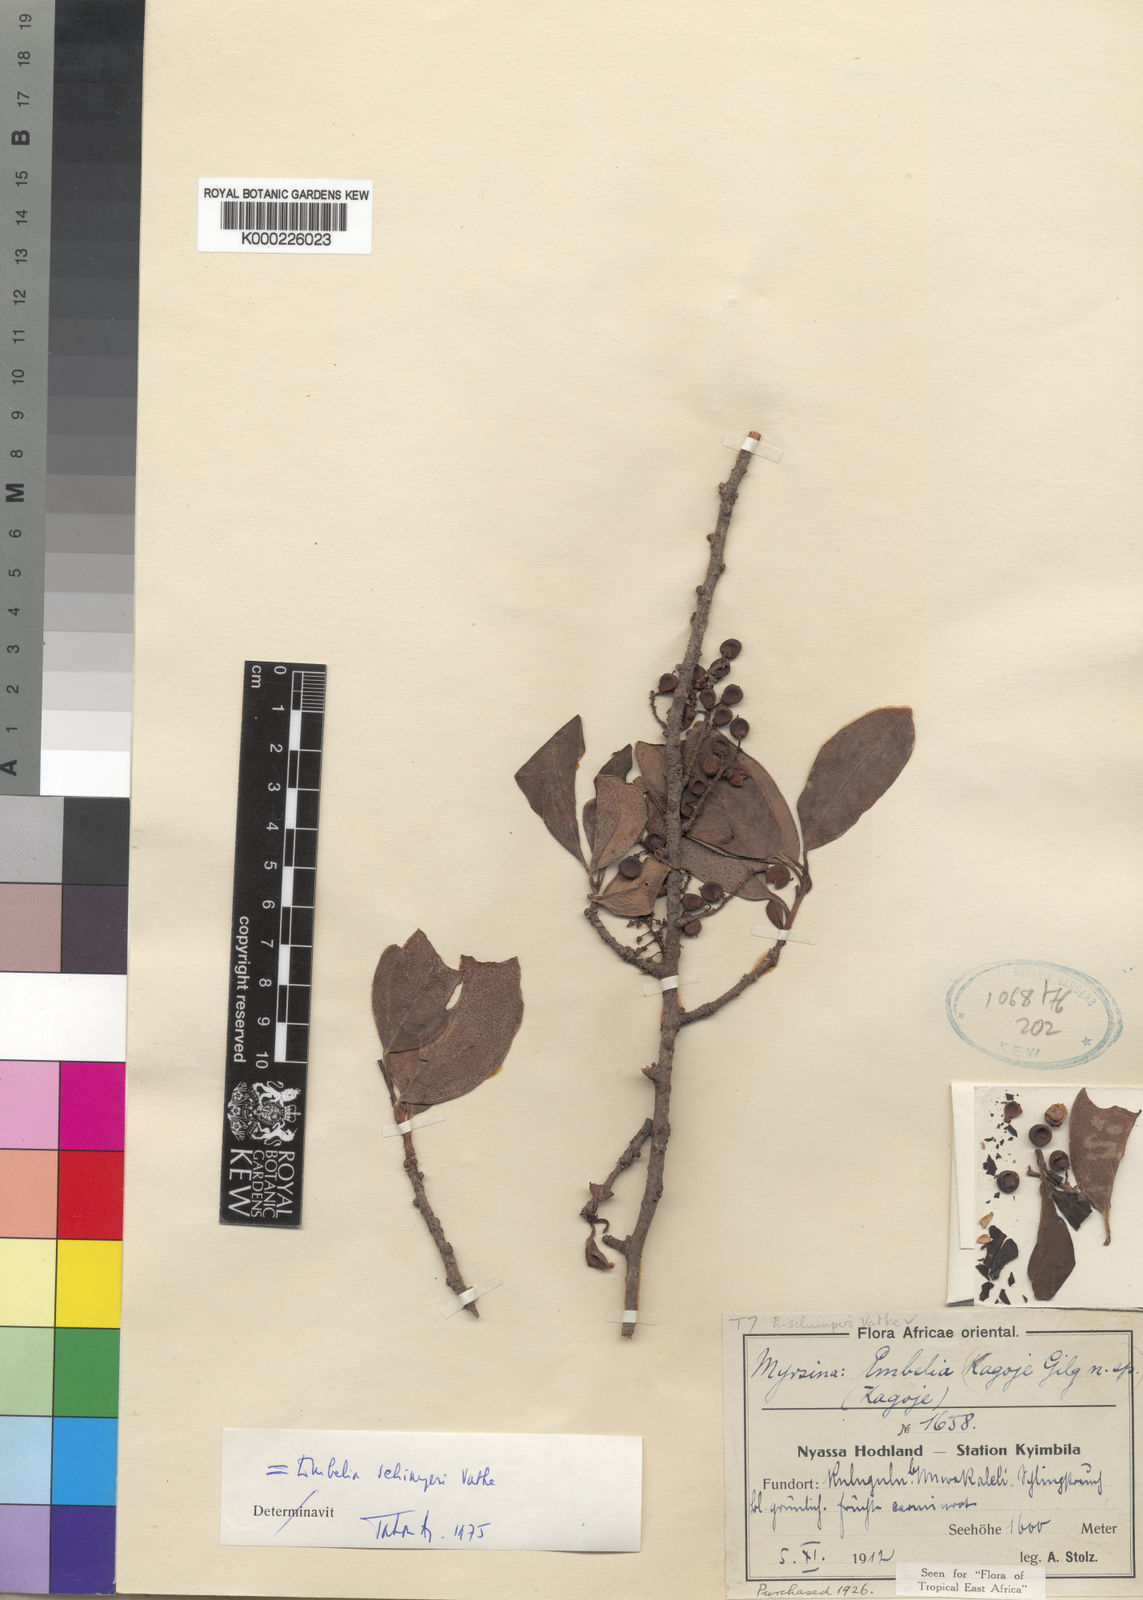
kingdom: Plantae
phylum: Tracheophyta
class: Magnoliopsida
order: Ericales
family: Primulaceae
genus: Embelia
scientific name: Embelia schimperi
